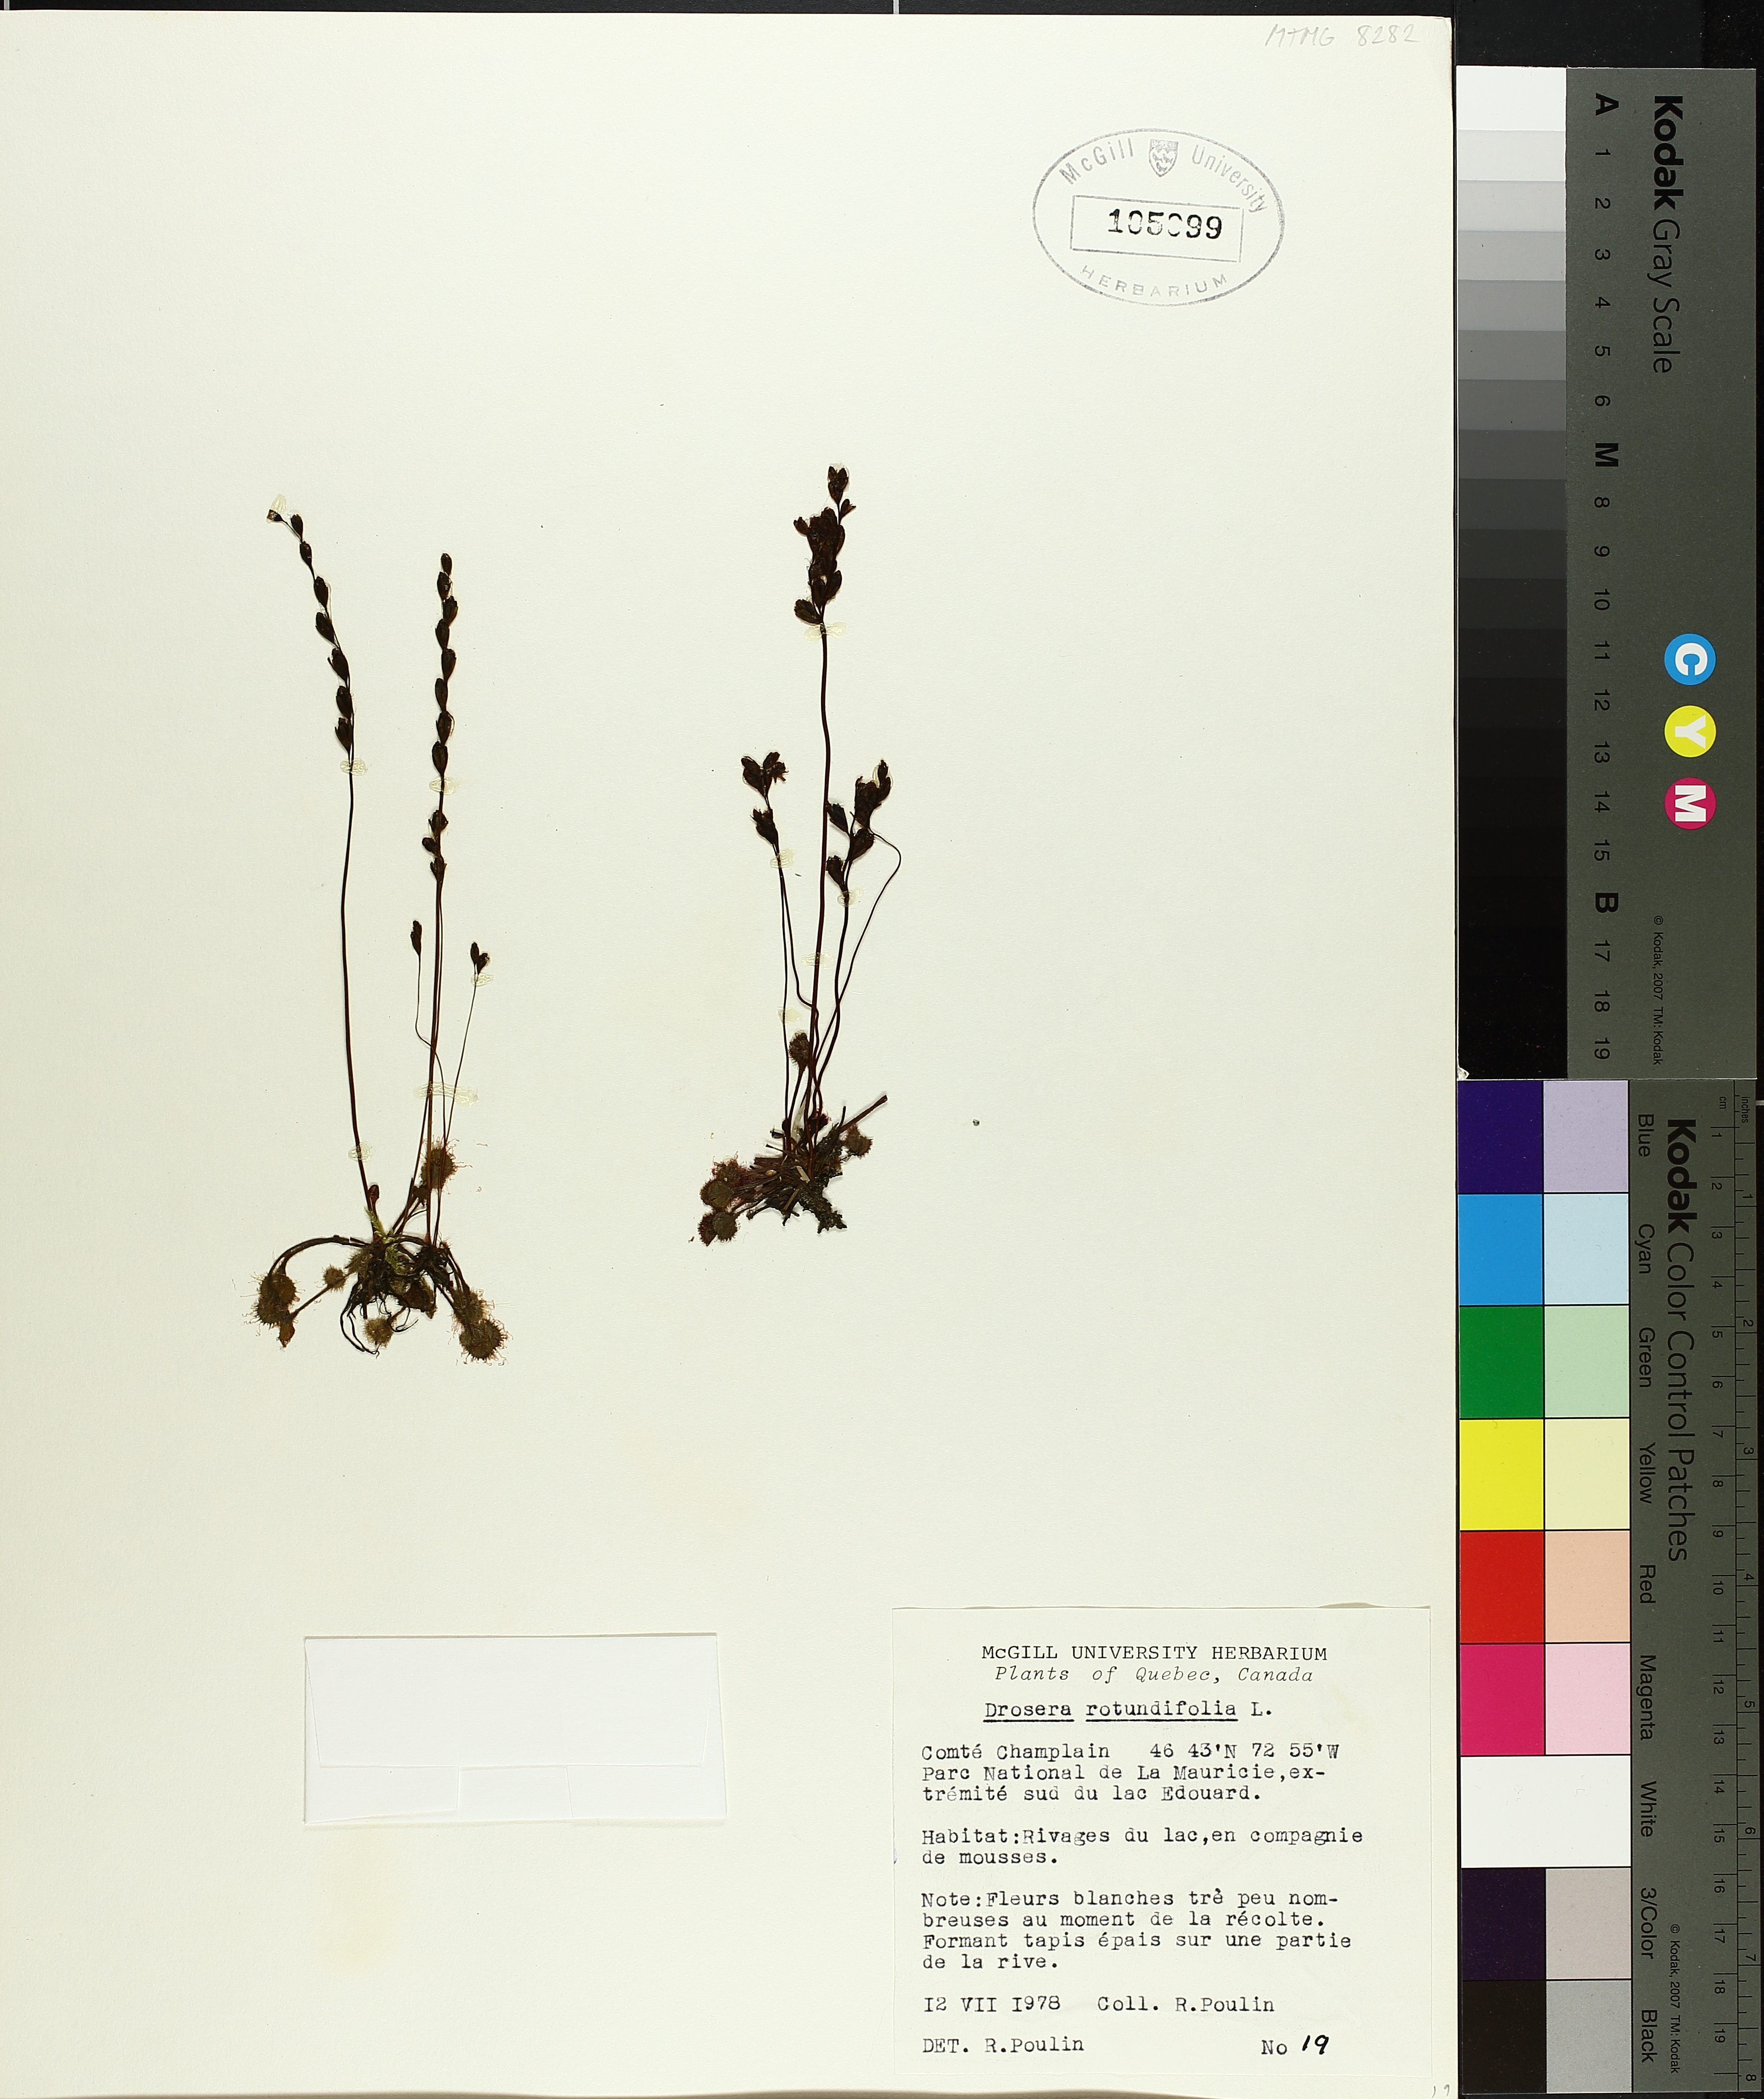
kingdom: Plantae
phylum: Tracheophyta
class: Magnoliopsida
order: Caryophyllales
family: Droseraceae
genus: Drosera
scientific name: Drosera rotundifolia
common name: Round-leaved sundew
